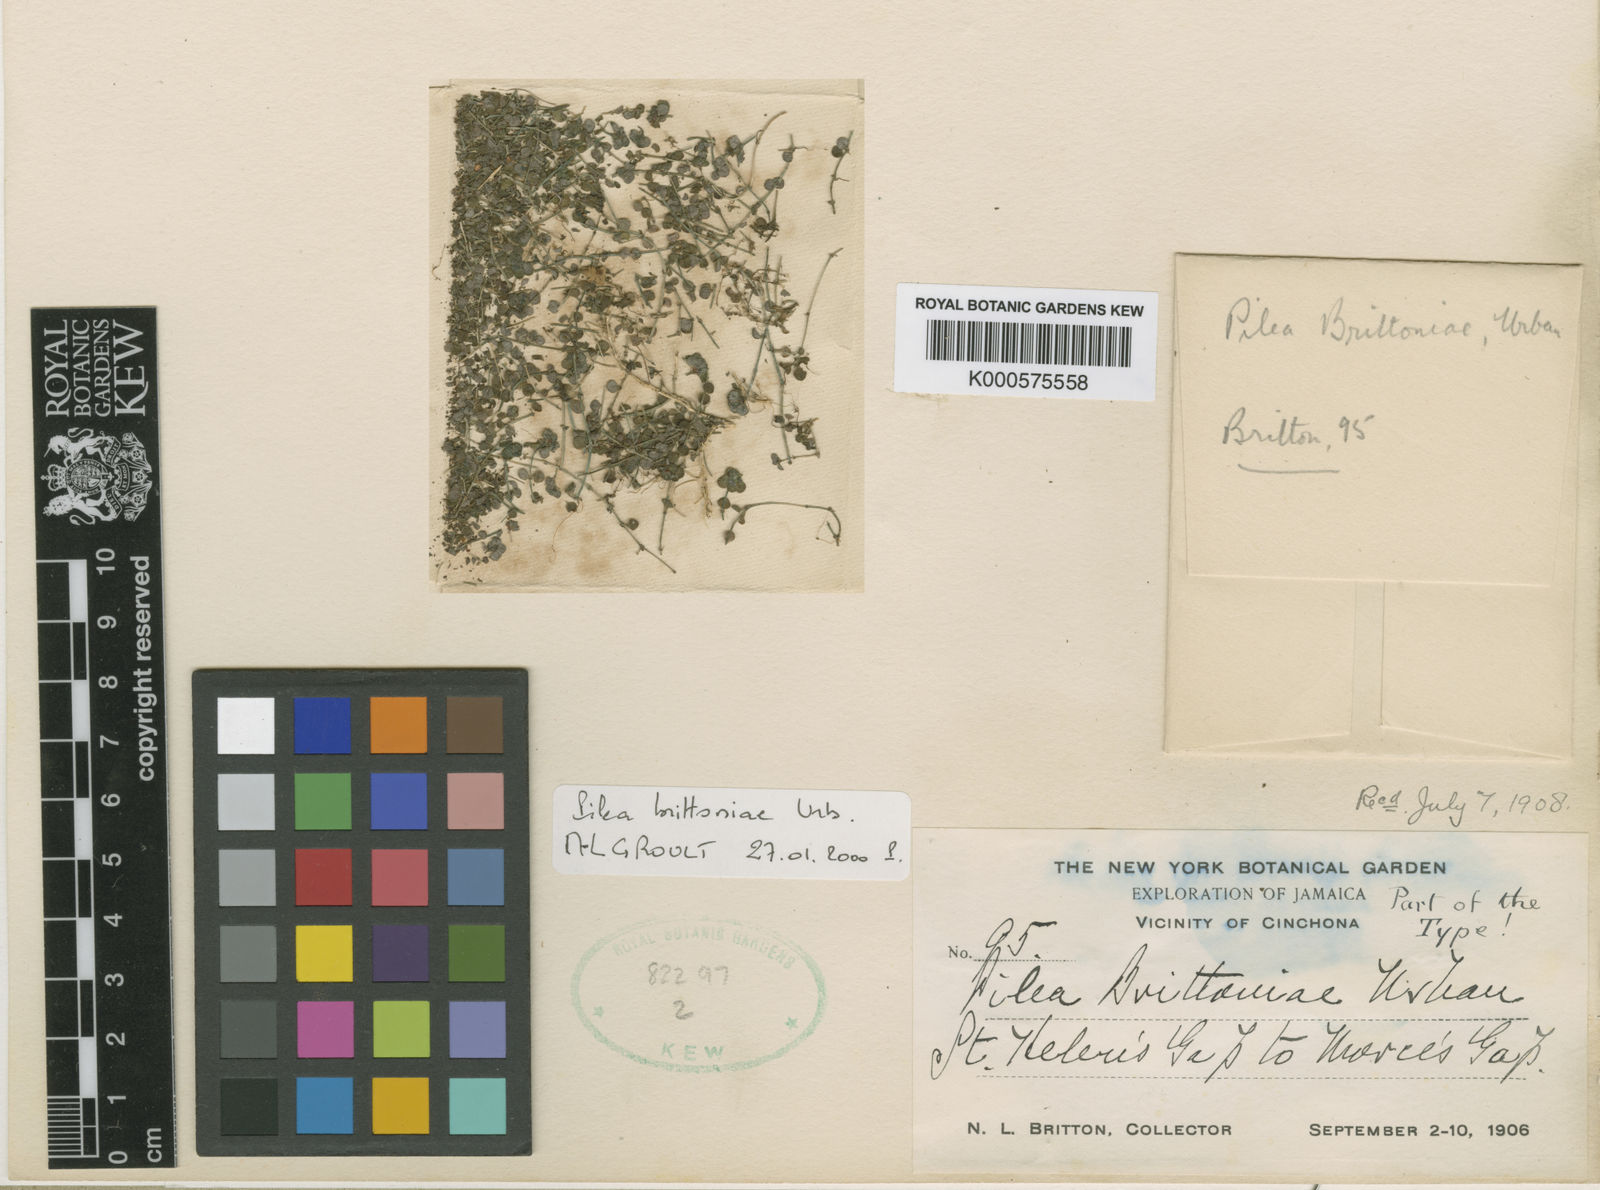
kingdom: Plantae
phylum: Tracheophyta
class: Magnoliopsida
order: Rosales
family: Urticaceae
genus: Pilea
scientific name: Pilea brittoniae
